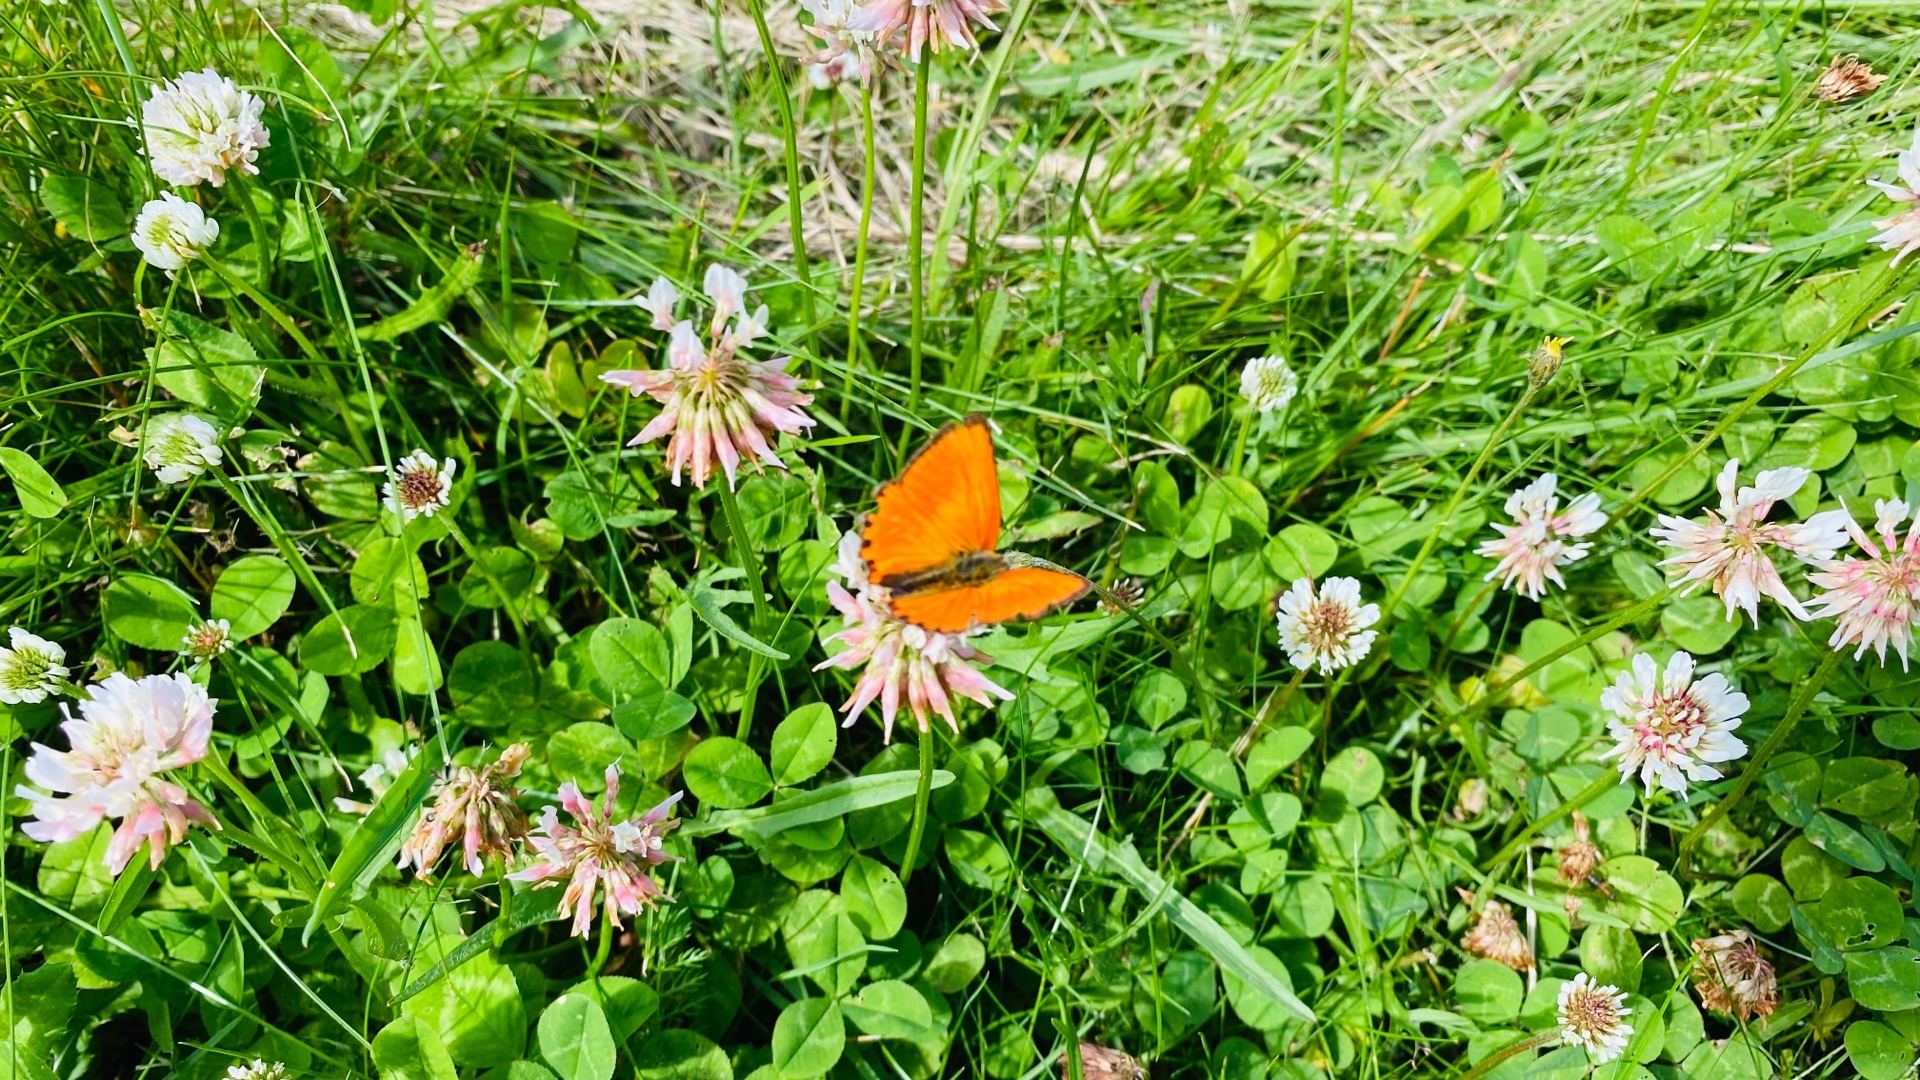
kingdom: Animalia
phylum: Arthropoda
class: Insecta
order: Lepidoptera
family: Lycaenidae
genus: Lycaena
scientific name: Lycaena virgaureae
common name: Dukatsommerfugl
